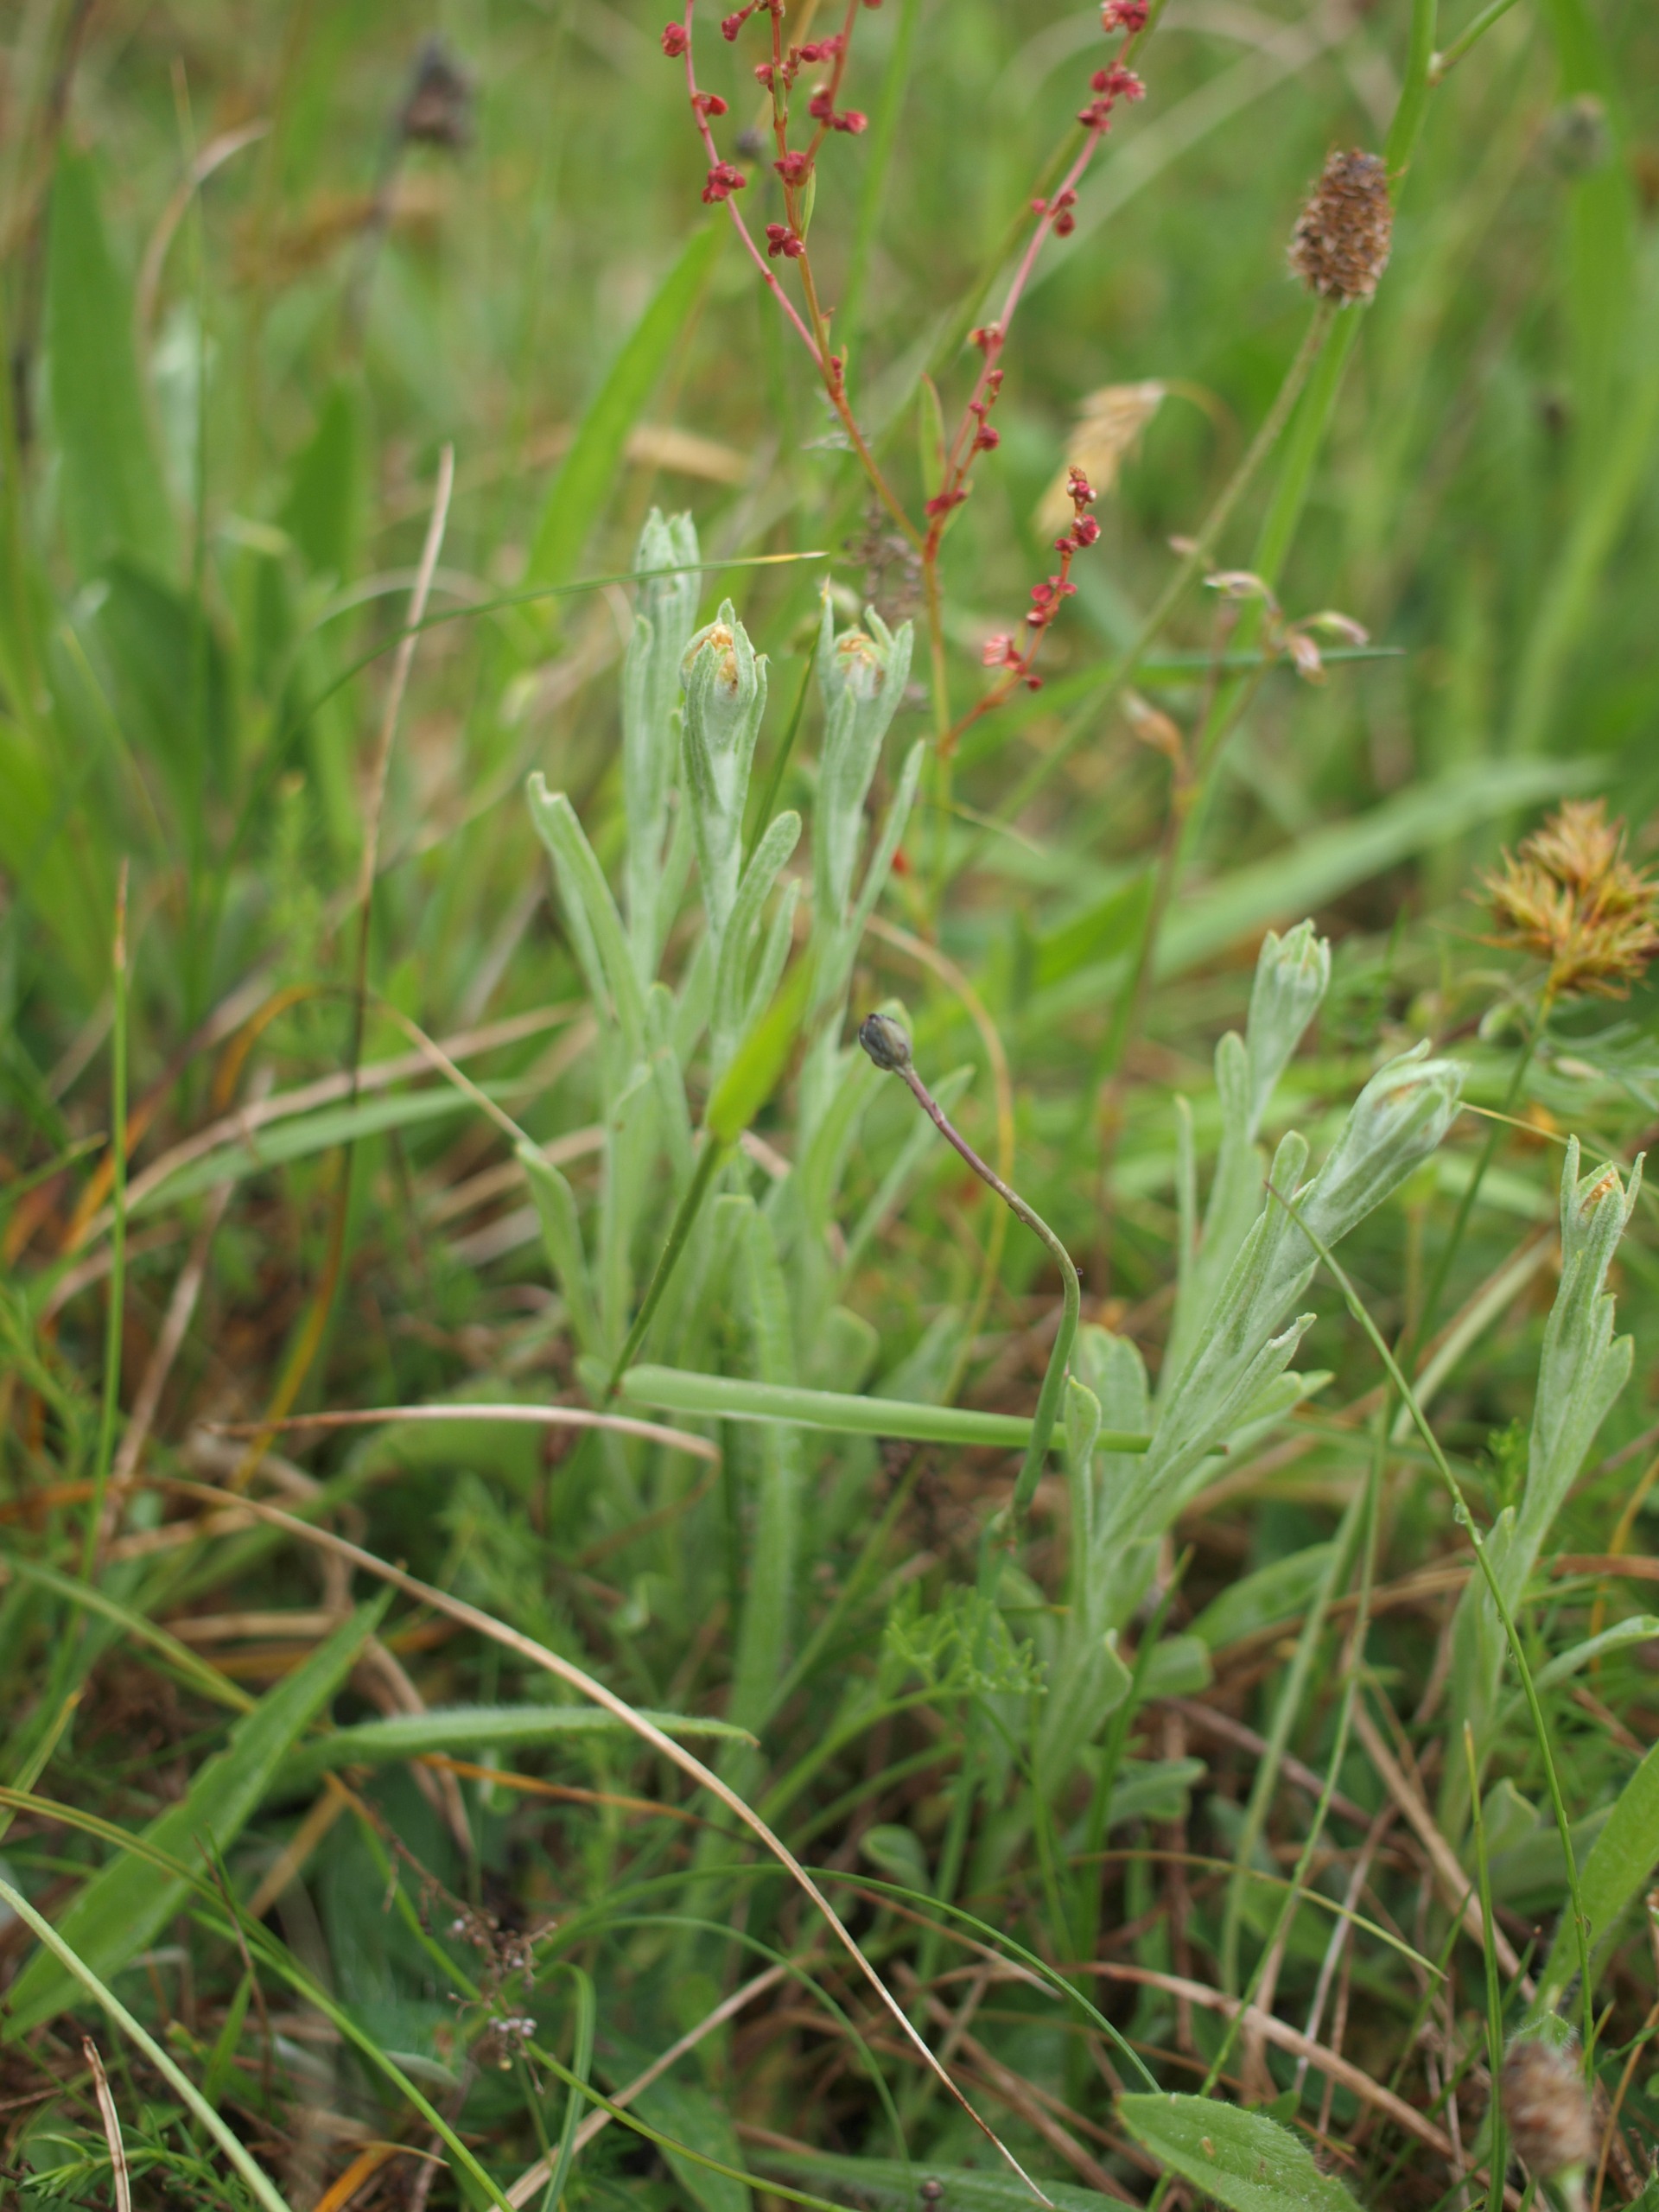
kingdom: Plantae
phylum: Tracheophyta
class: Magnoliopsida
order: Asterales
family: Asteraceae
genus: Helichrysum
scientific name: Helichrysum arenarium
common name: Gul evighedsblomst
